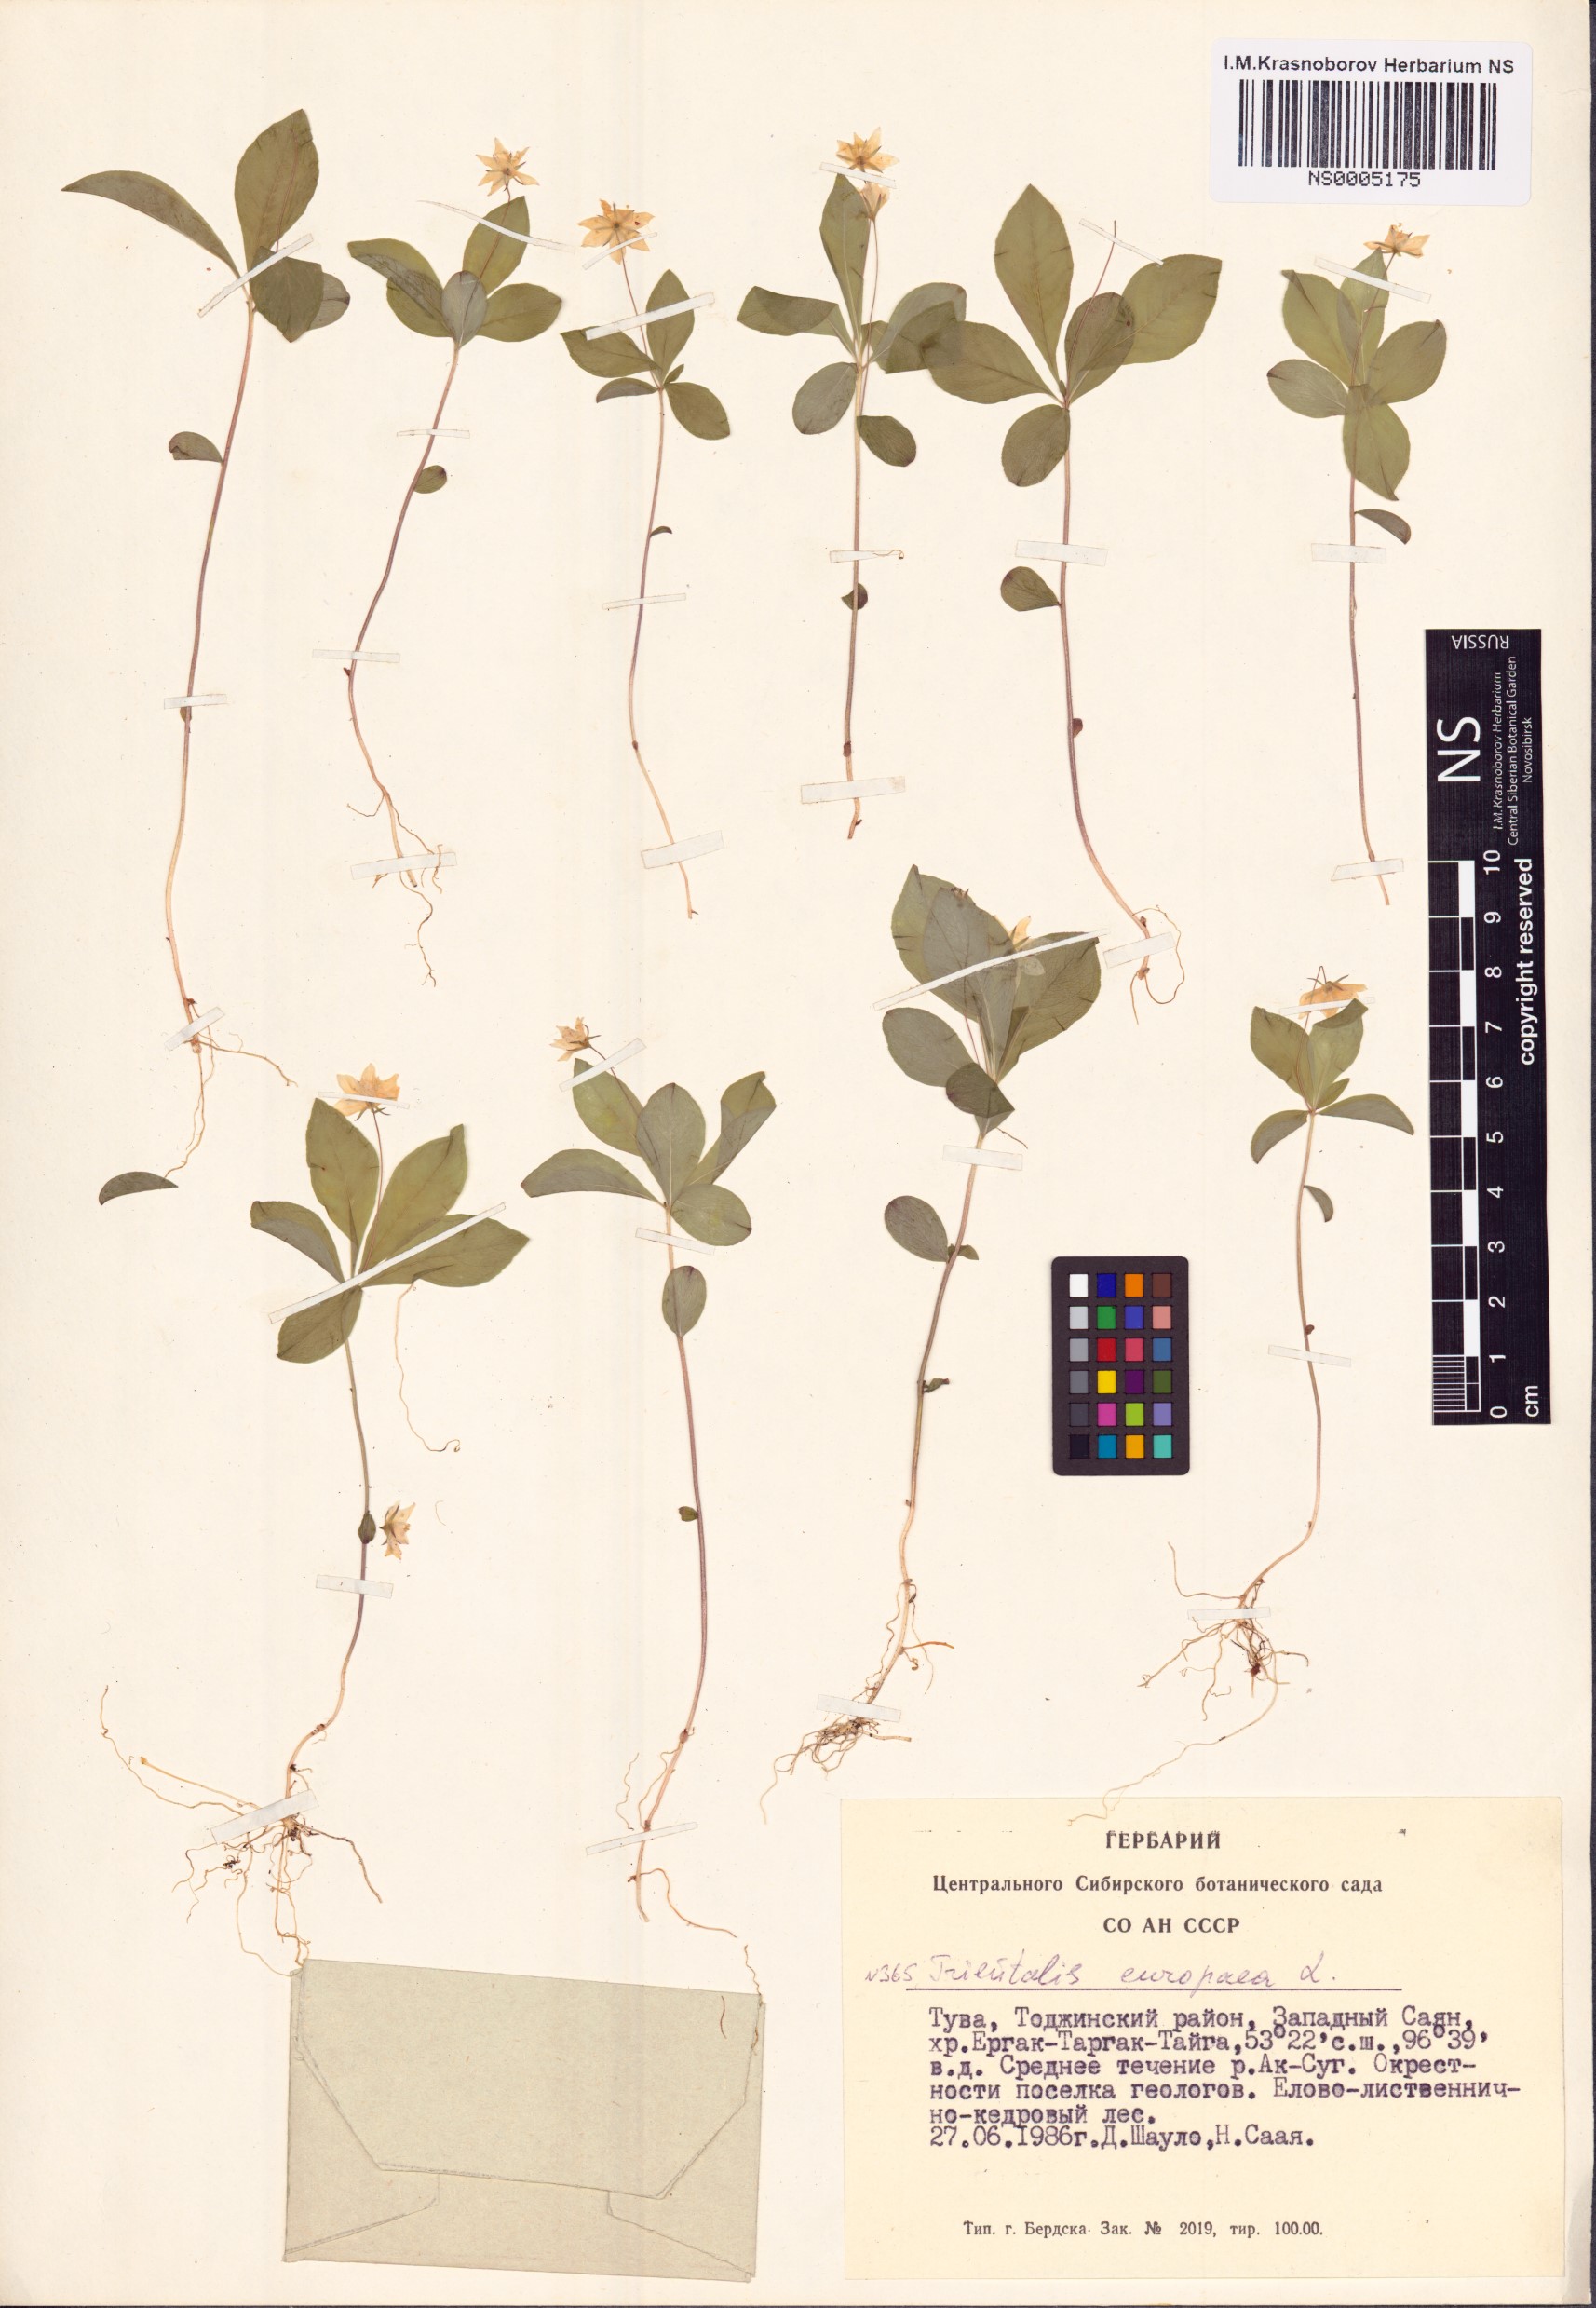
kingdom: Plantae
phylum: Tracheophyta
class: Magnoliopsida
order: Ericales
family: Primulaceae
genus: Lysimachia
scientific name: Lysimachia europaea
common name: Arctic starflower
